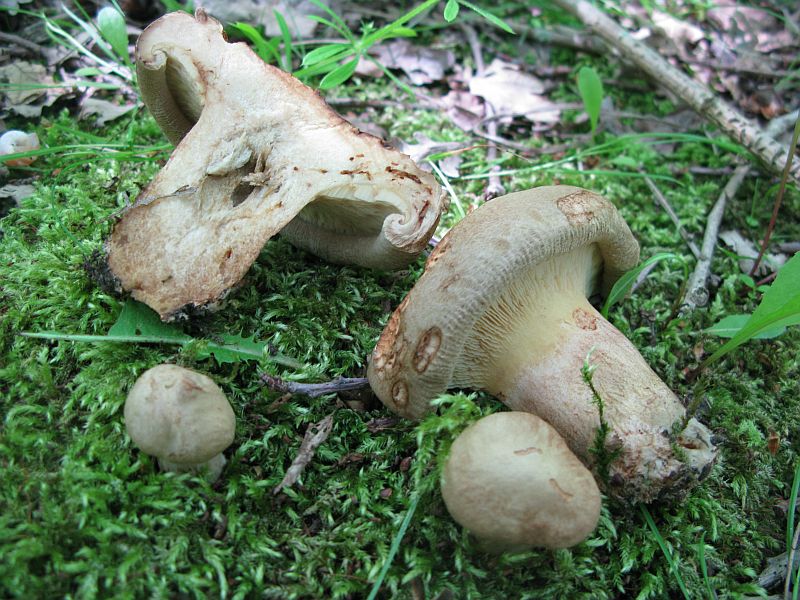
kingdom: Fungi
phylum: Basidiomycota
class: Agaricomycetes
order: Boletales
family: Paxillaceae
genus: Paxillus
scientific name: Paxillus obscurisporus
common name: mahognisporet netbladhat
